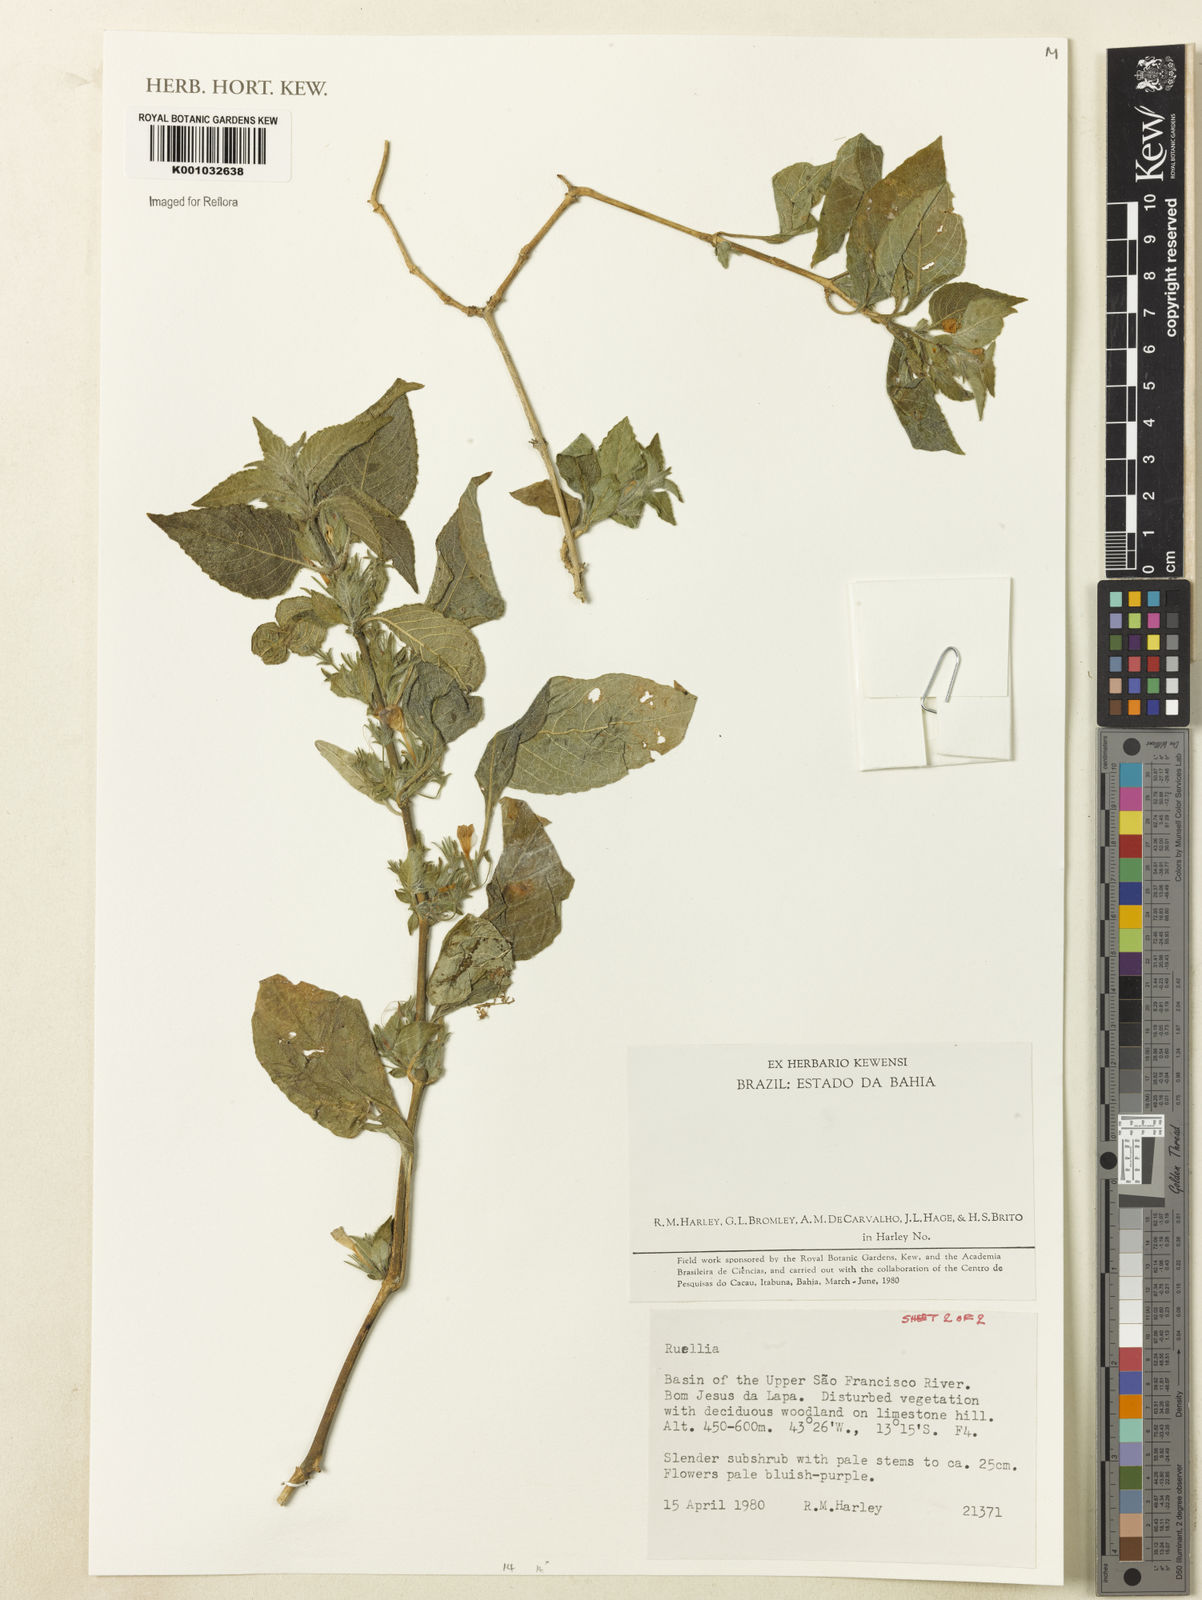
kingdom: Plantae
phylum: Tracheophyta
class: Magnoliopsida
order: Lamiales
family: Acanthaceae
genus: Ruellia
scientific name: Ruellia
